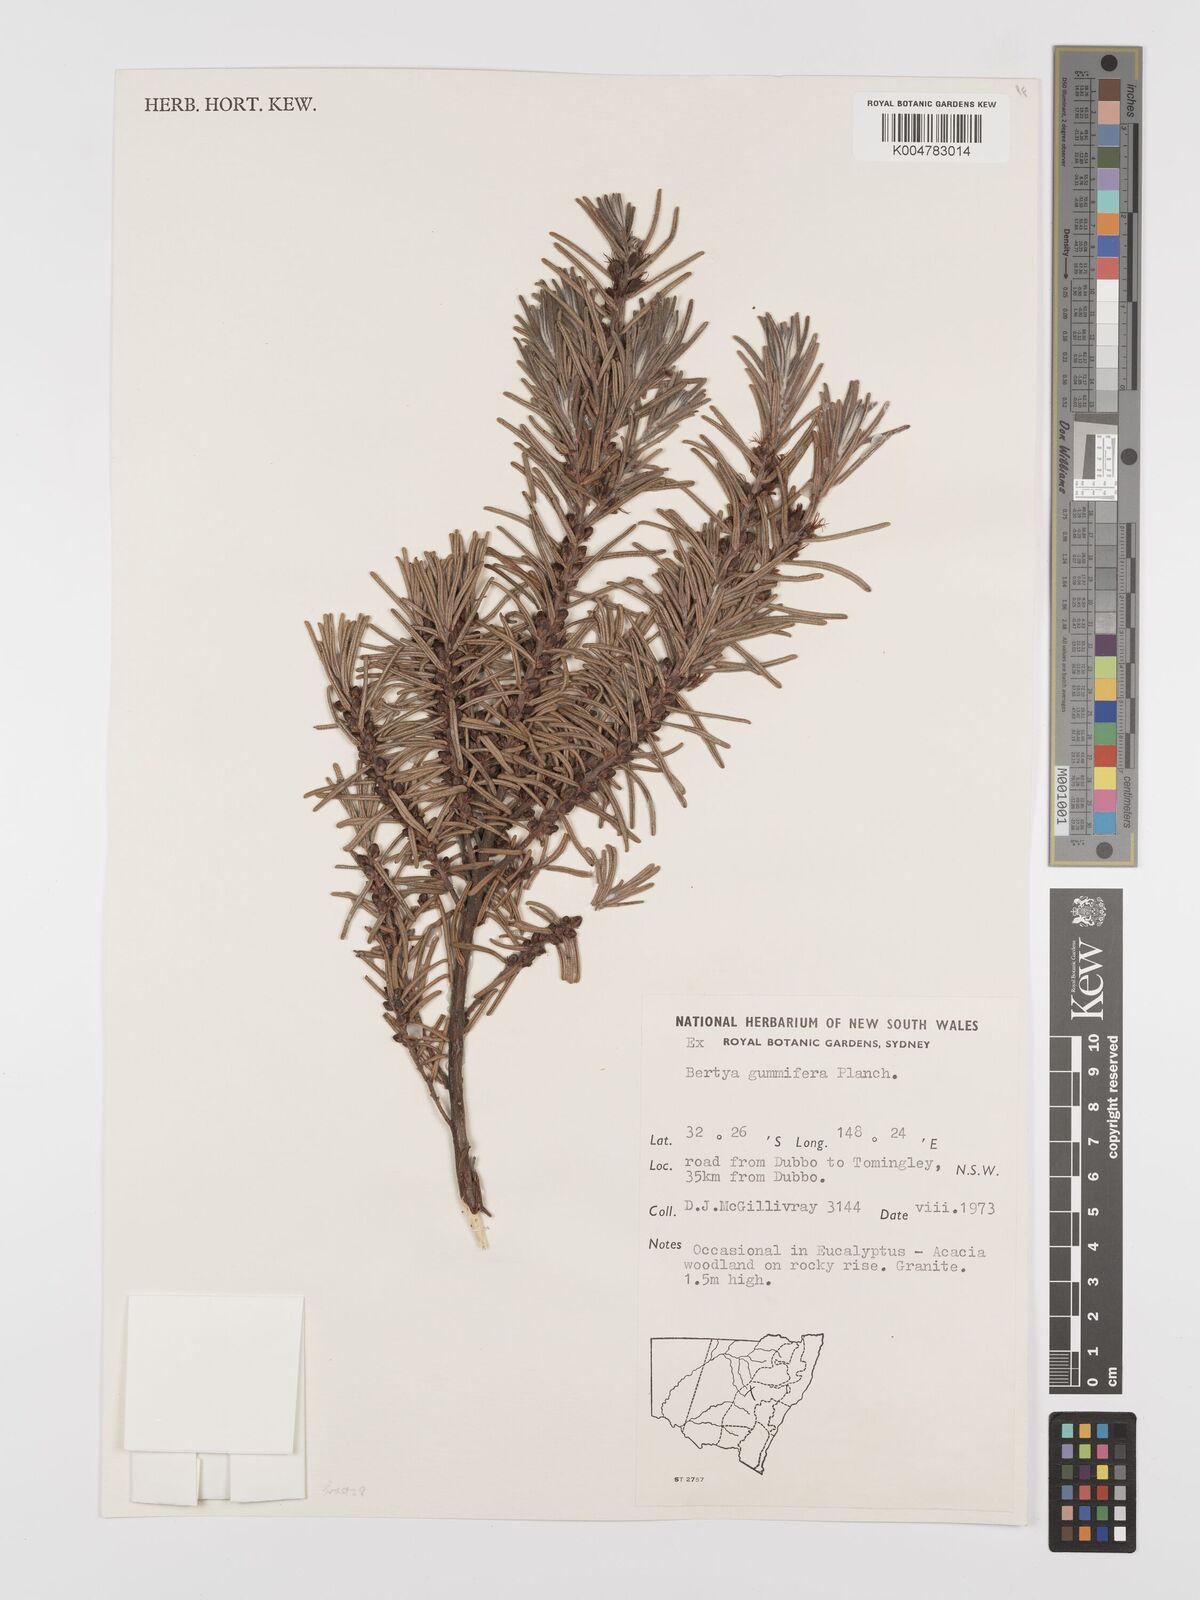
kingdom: Plantae
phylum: Tracheophyta
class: Magnoliopsida
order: Malpighiales
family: Euphorbiaceae
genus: Bertya
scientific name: Bertya gummifera
